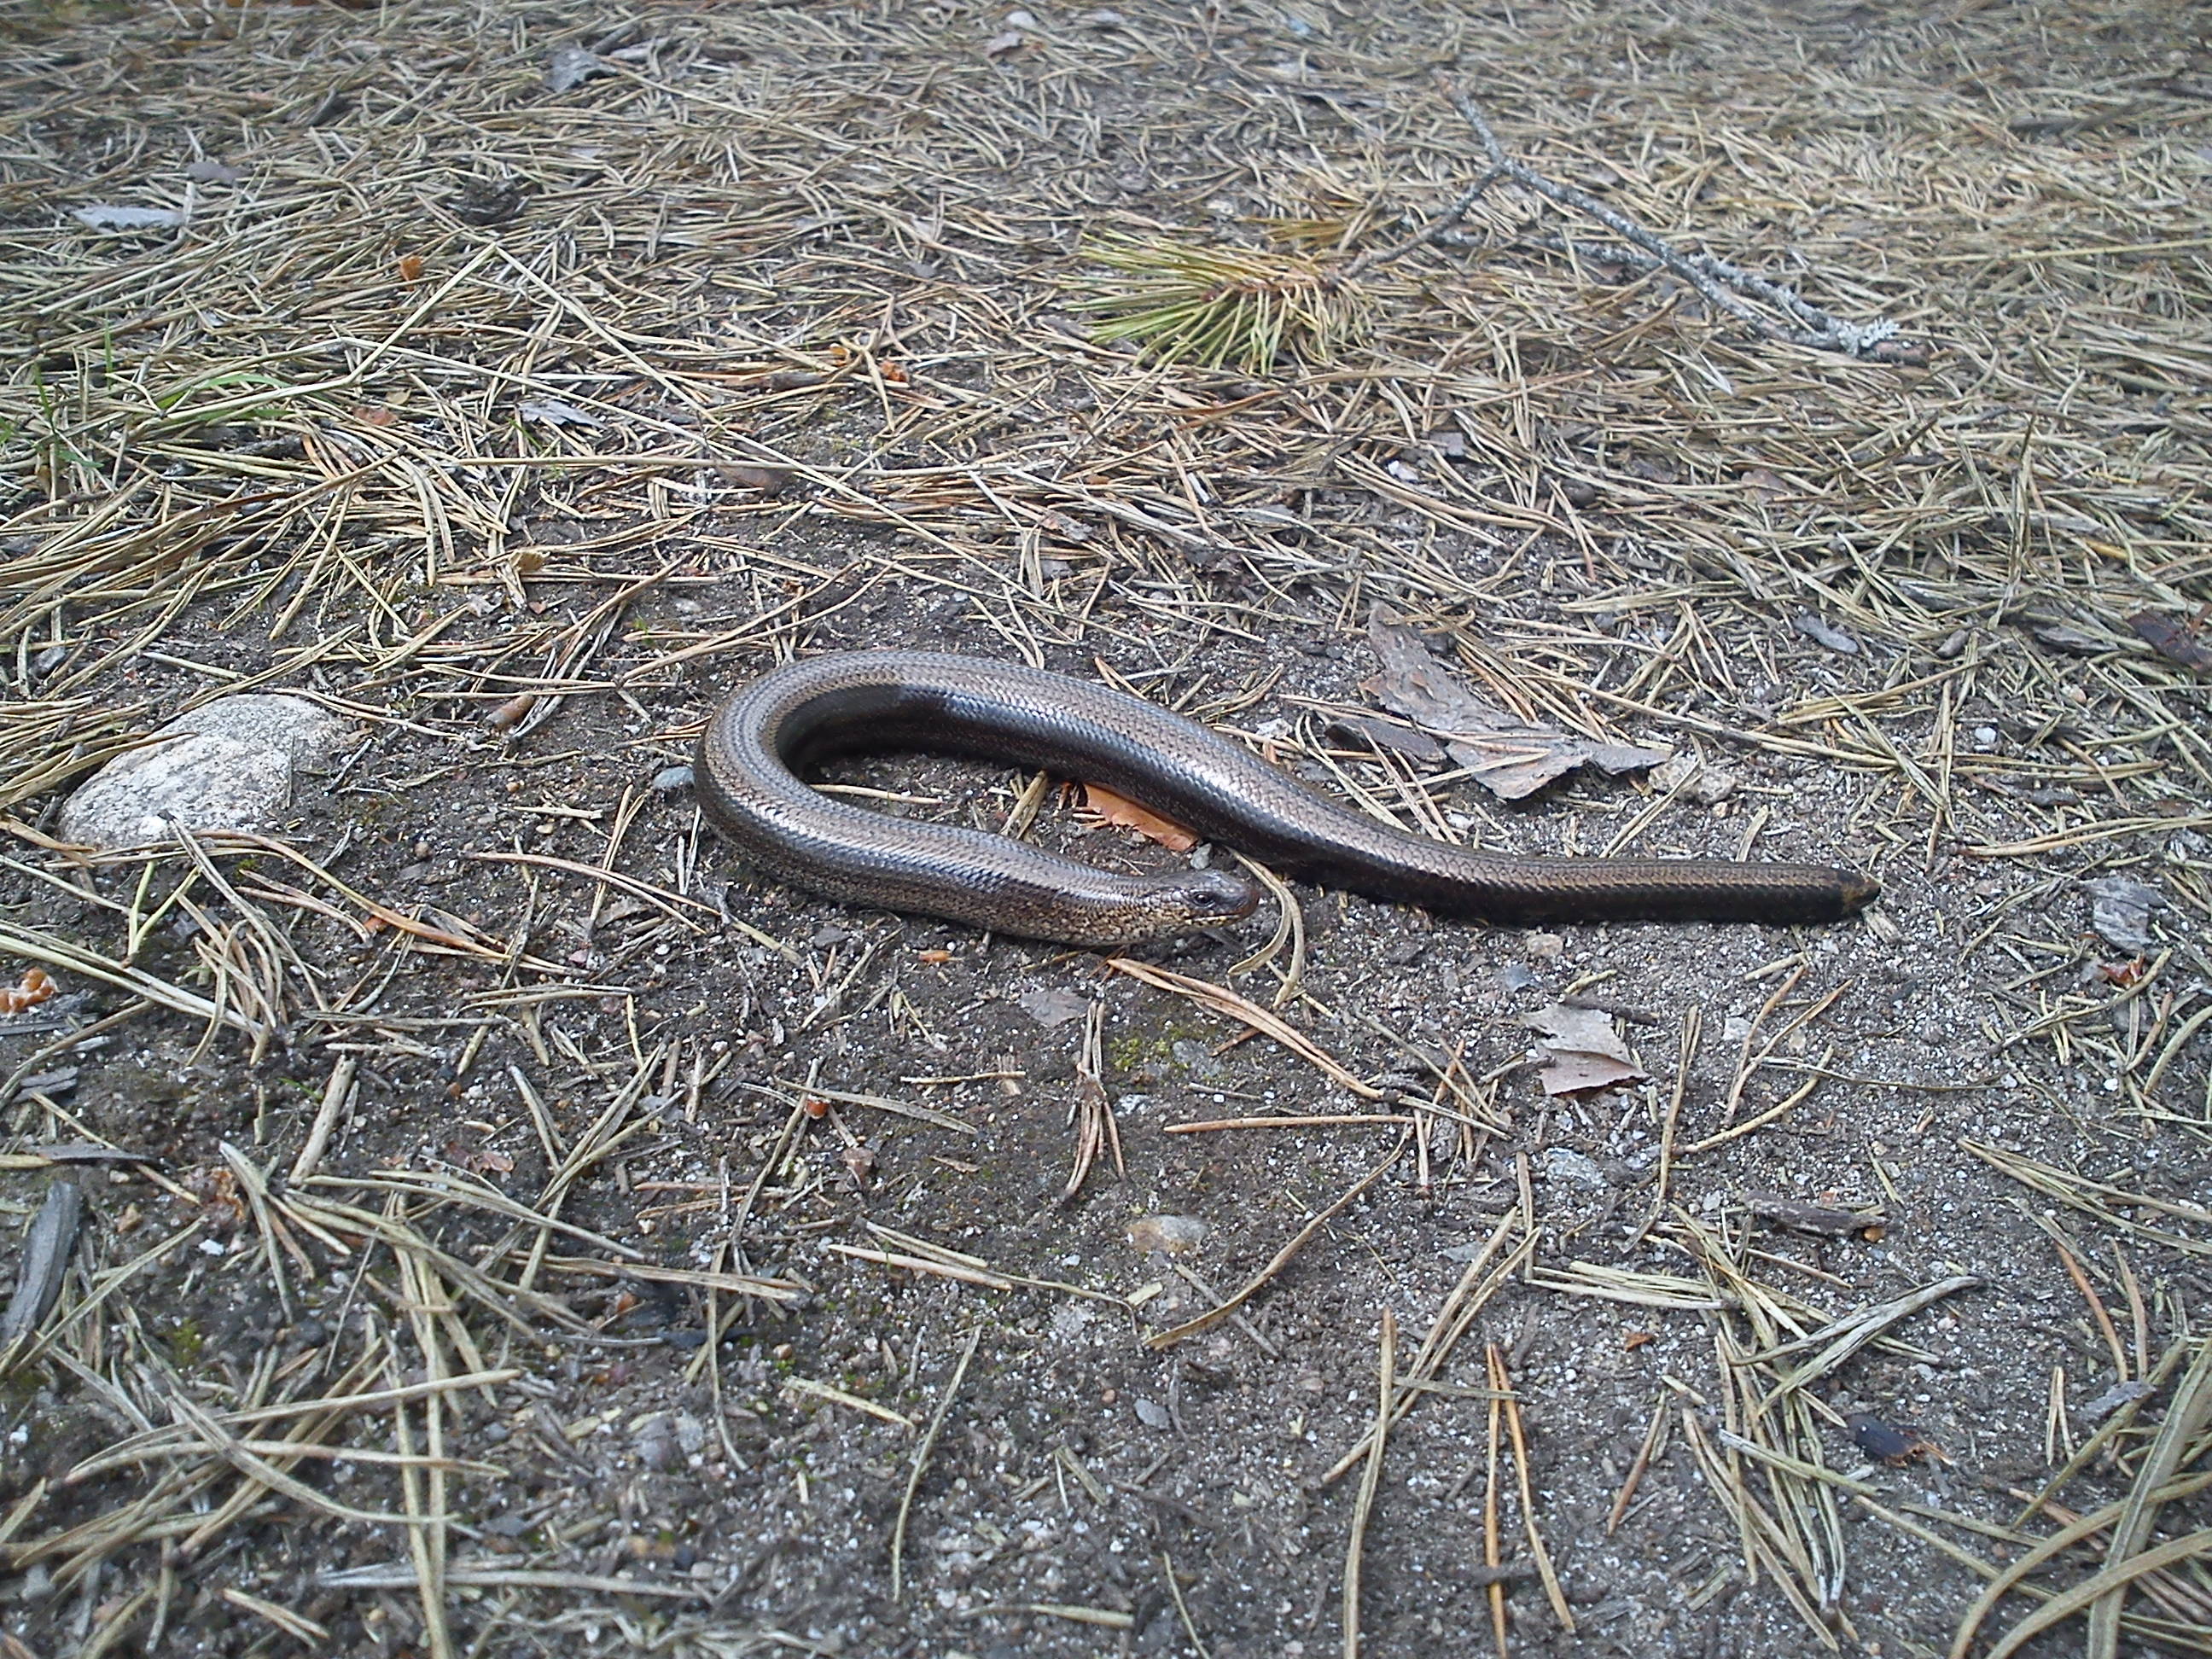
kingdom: Animalia
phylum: Chordata
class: Squamata
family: Anguidae
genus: Anguis
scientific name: Anguis colchica
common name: Slow worm
